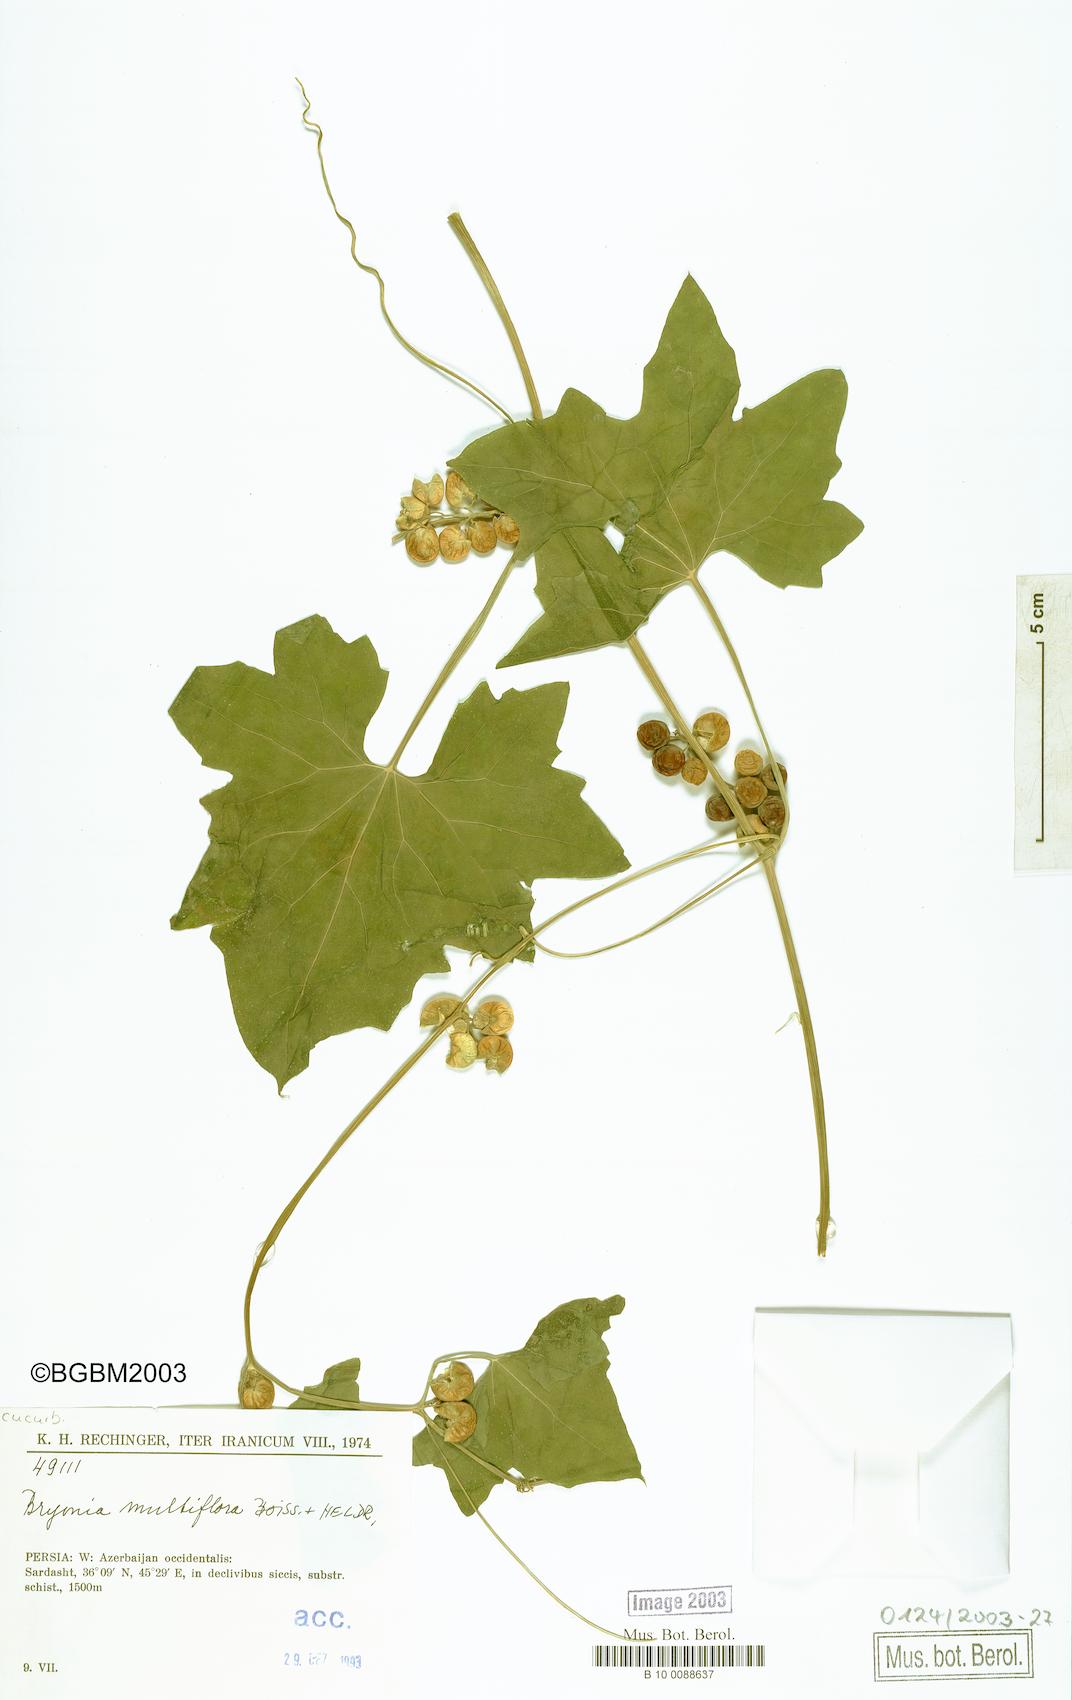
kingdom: Plantae
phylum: Tracheophyta
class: Magnoliopsida
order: Cucurbitales
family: Cucurbitaceae
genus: Bryonia
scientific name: Bryonia multiflora
